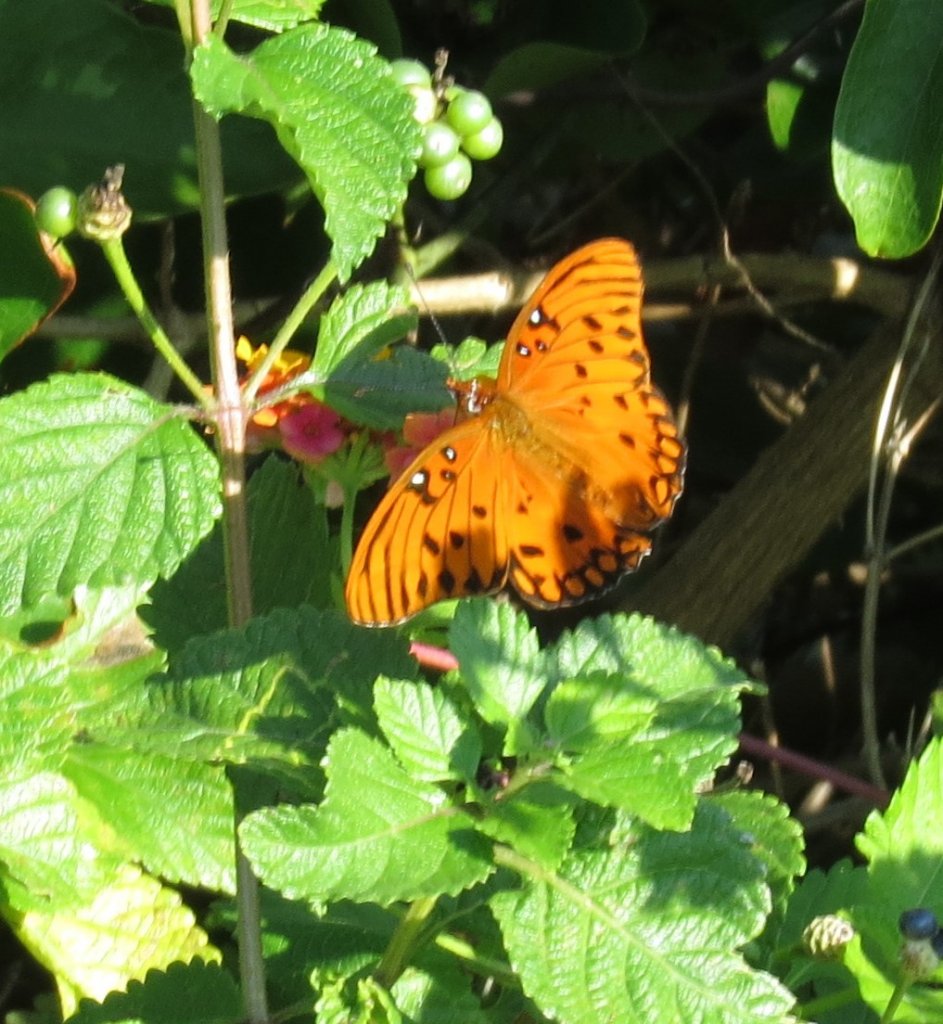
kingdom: Animalia
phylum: Arthropoda
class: Insecta
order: Lepidoptera
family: Nymphalidae
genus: Dione
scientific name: Dione vanillae
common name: Gulf Fritillary
